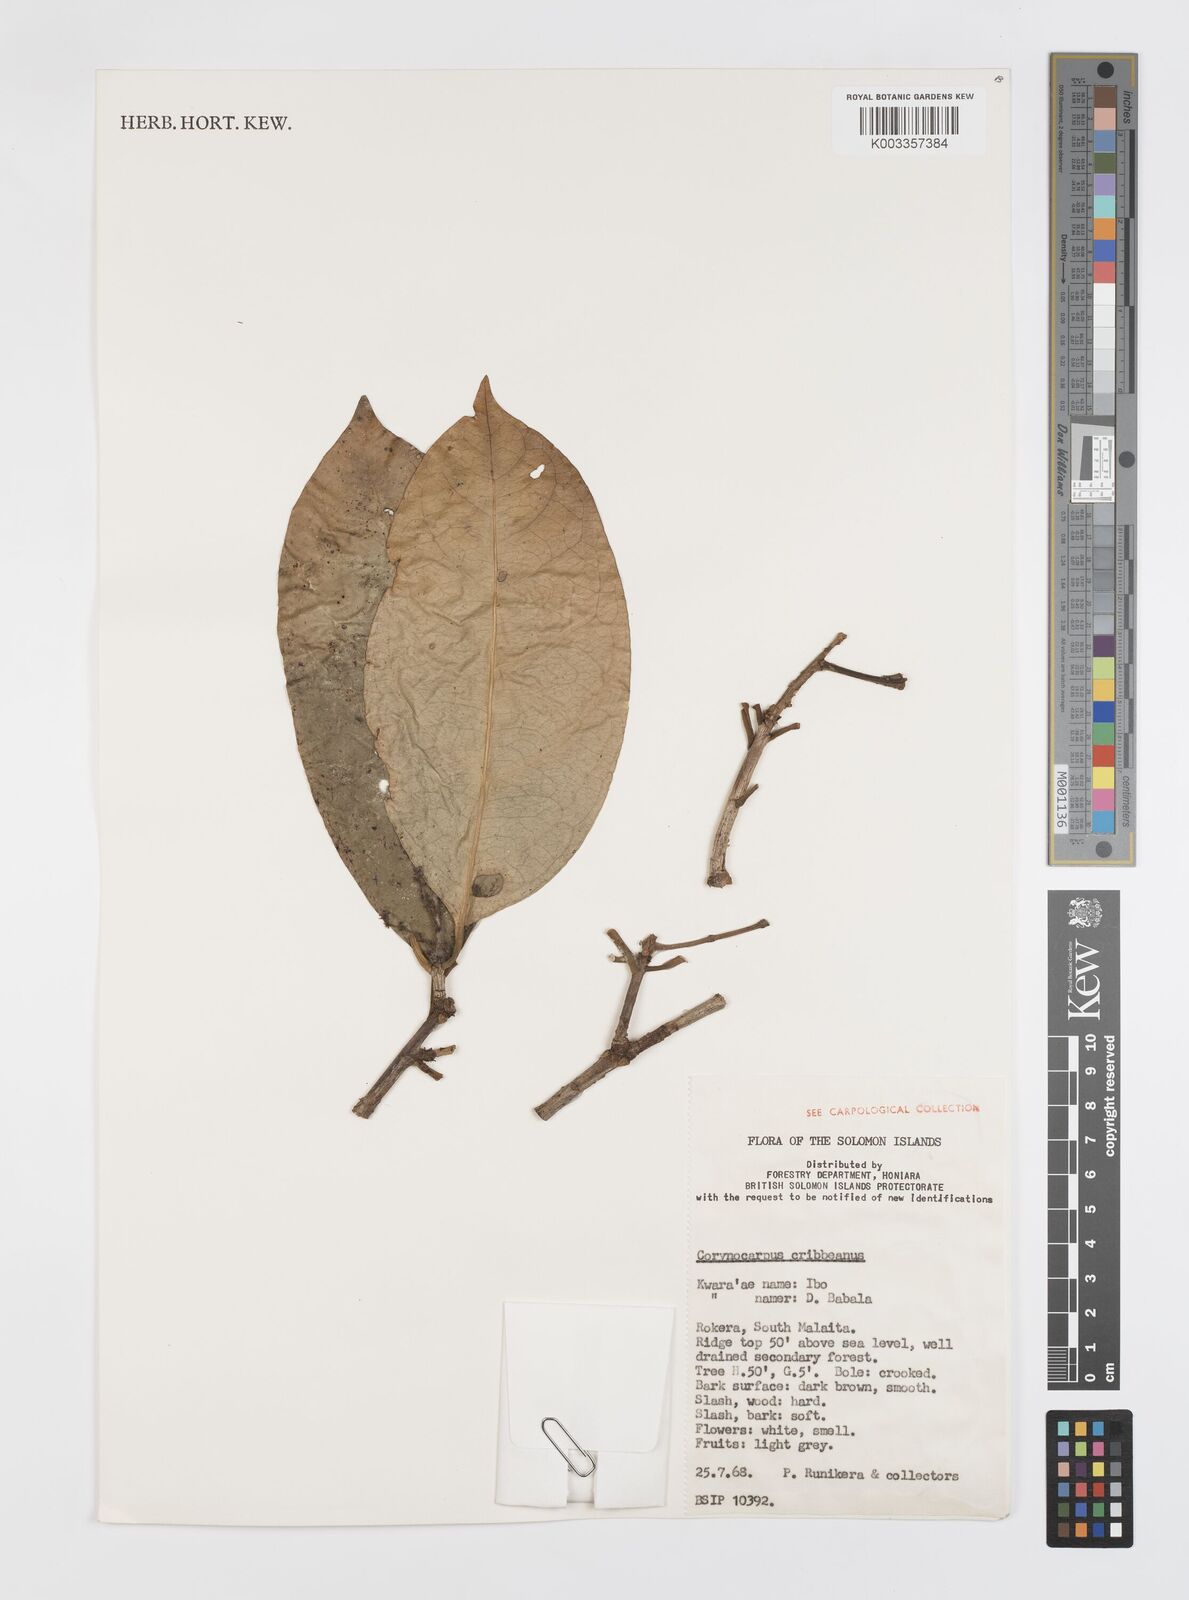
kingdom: Plantae
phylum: Tracheophyta
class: Magnoliopsida
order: Cucurbitales
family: Corynocarpaceae
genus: Corynocarpus
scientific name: Corynocarpus similis
